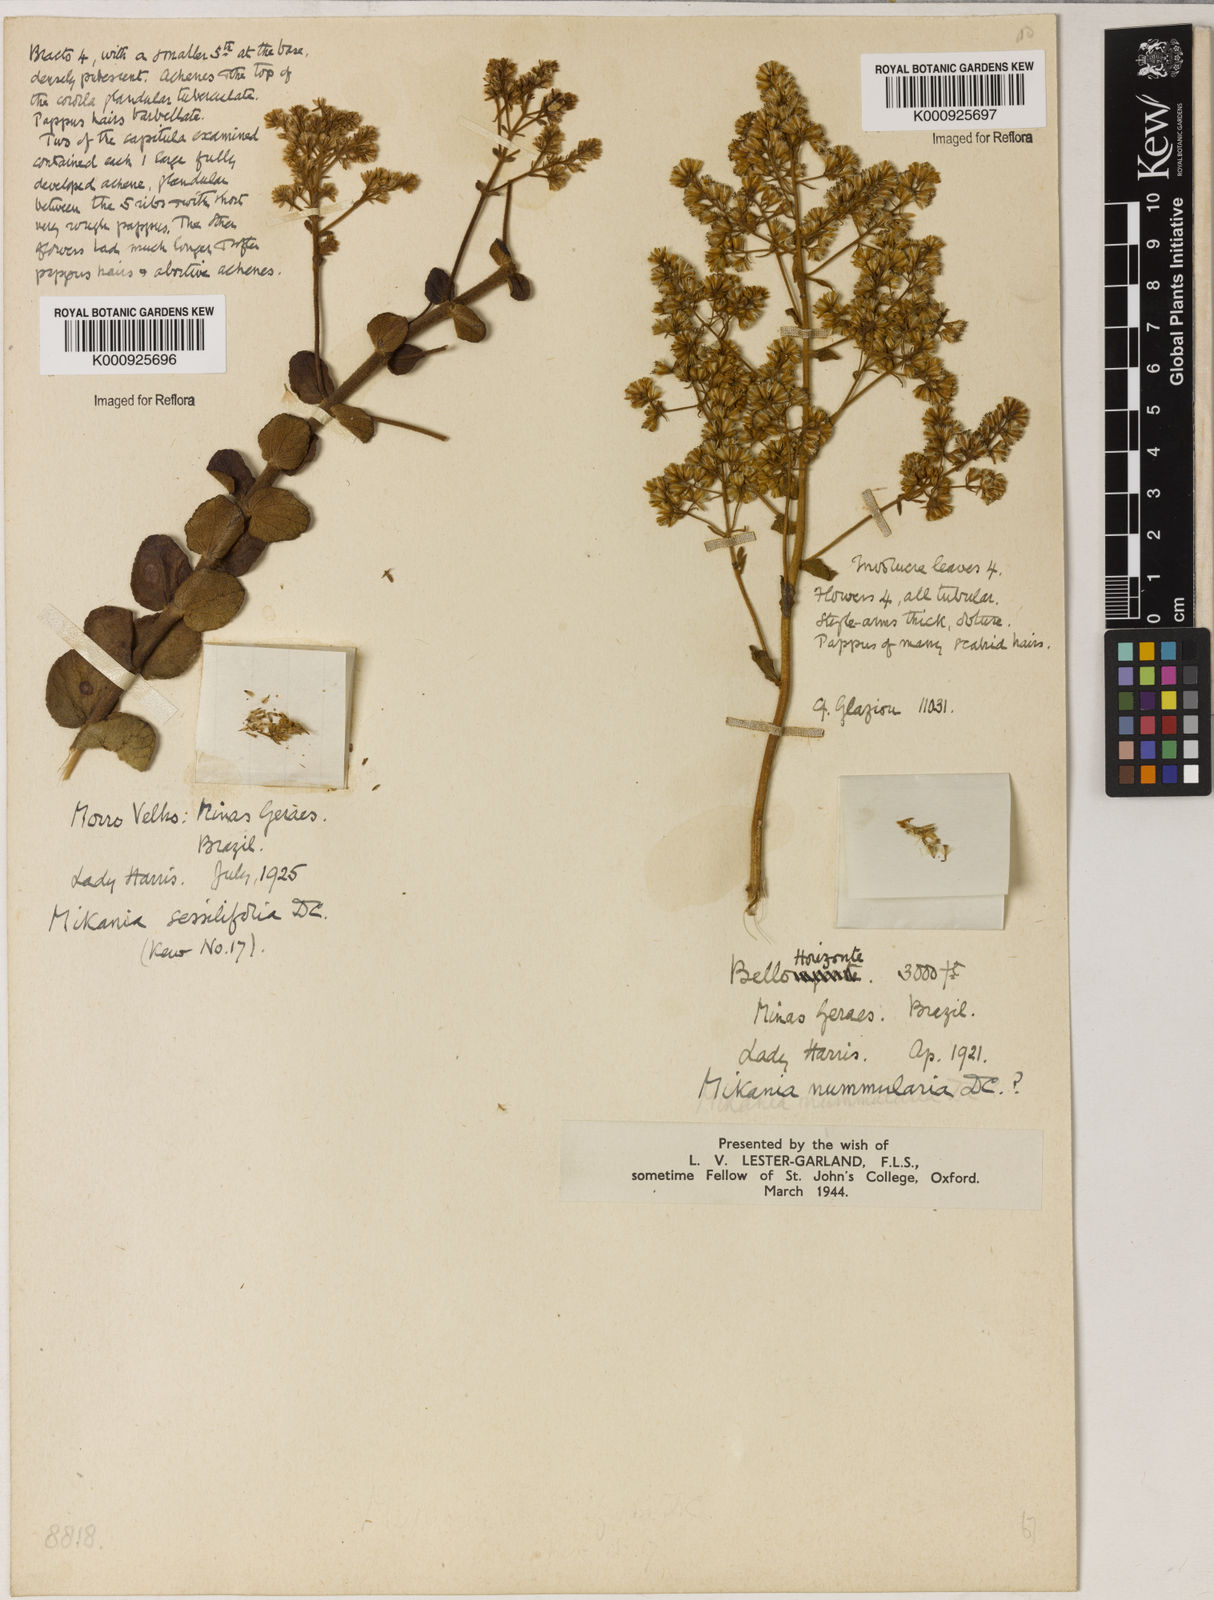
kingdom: Plantae
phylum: Tracheophyta
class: Magnoliopsida
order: Asterales
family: Asteraceae
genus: Mikania
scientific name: Mikania nummularia
